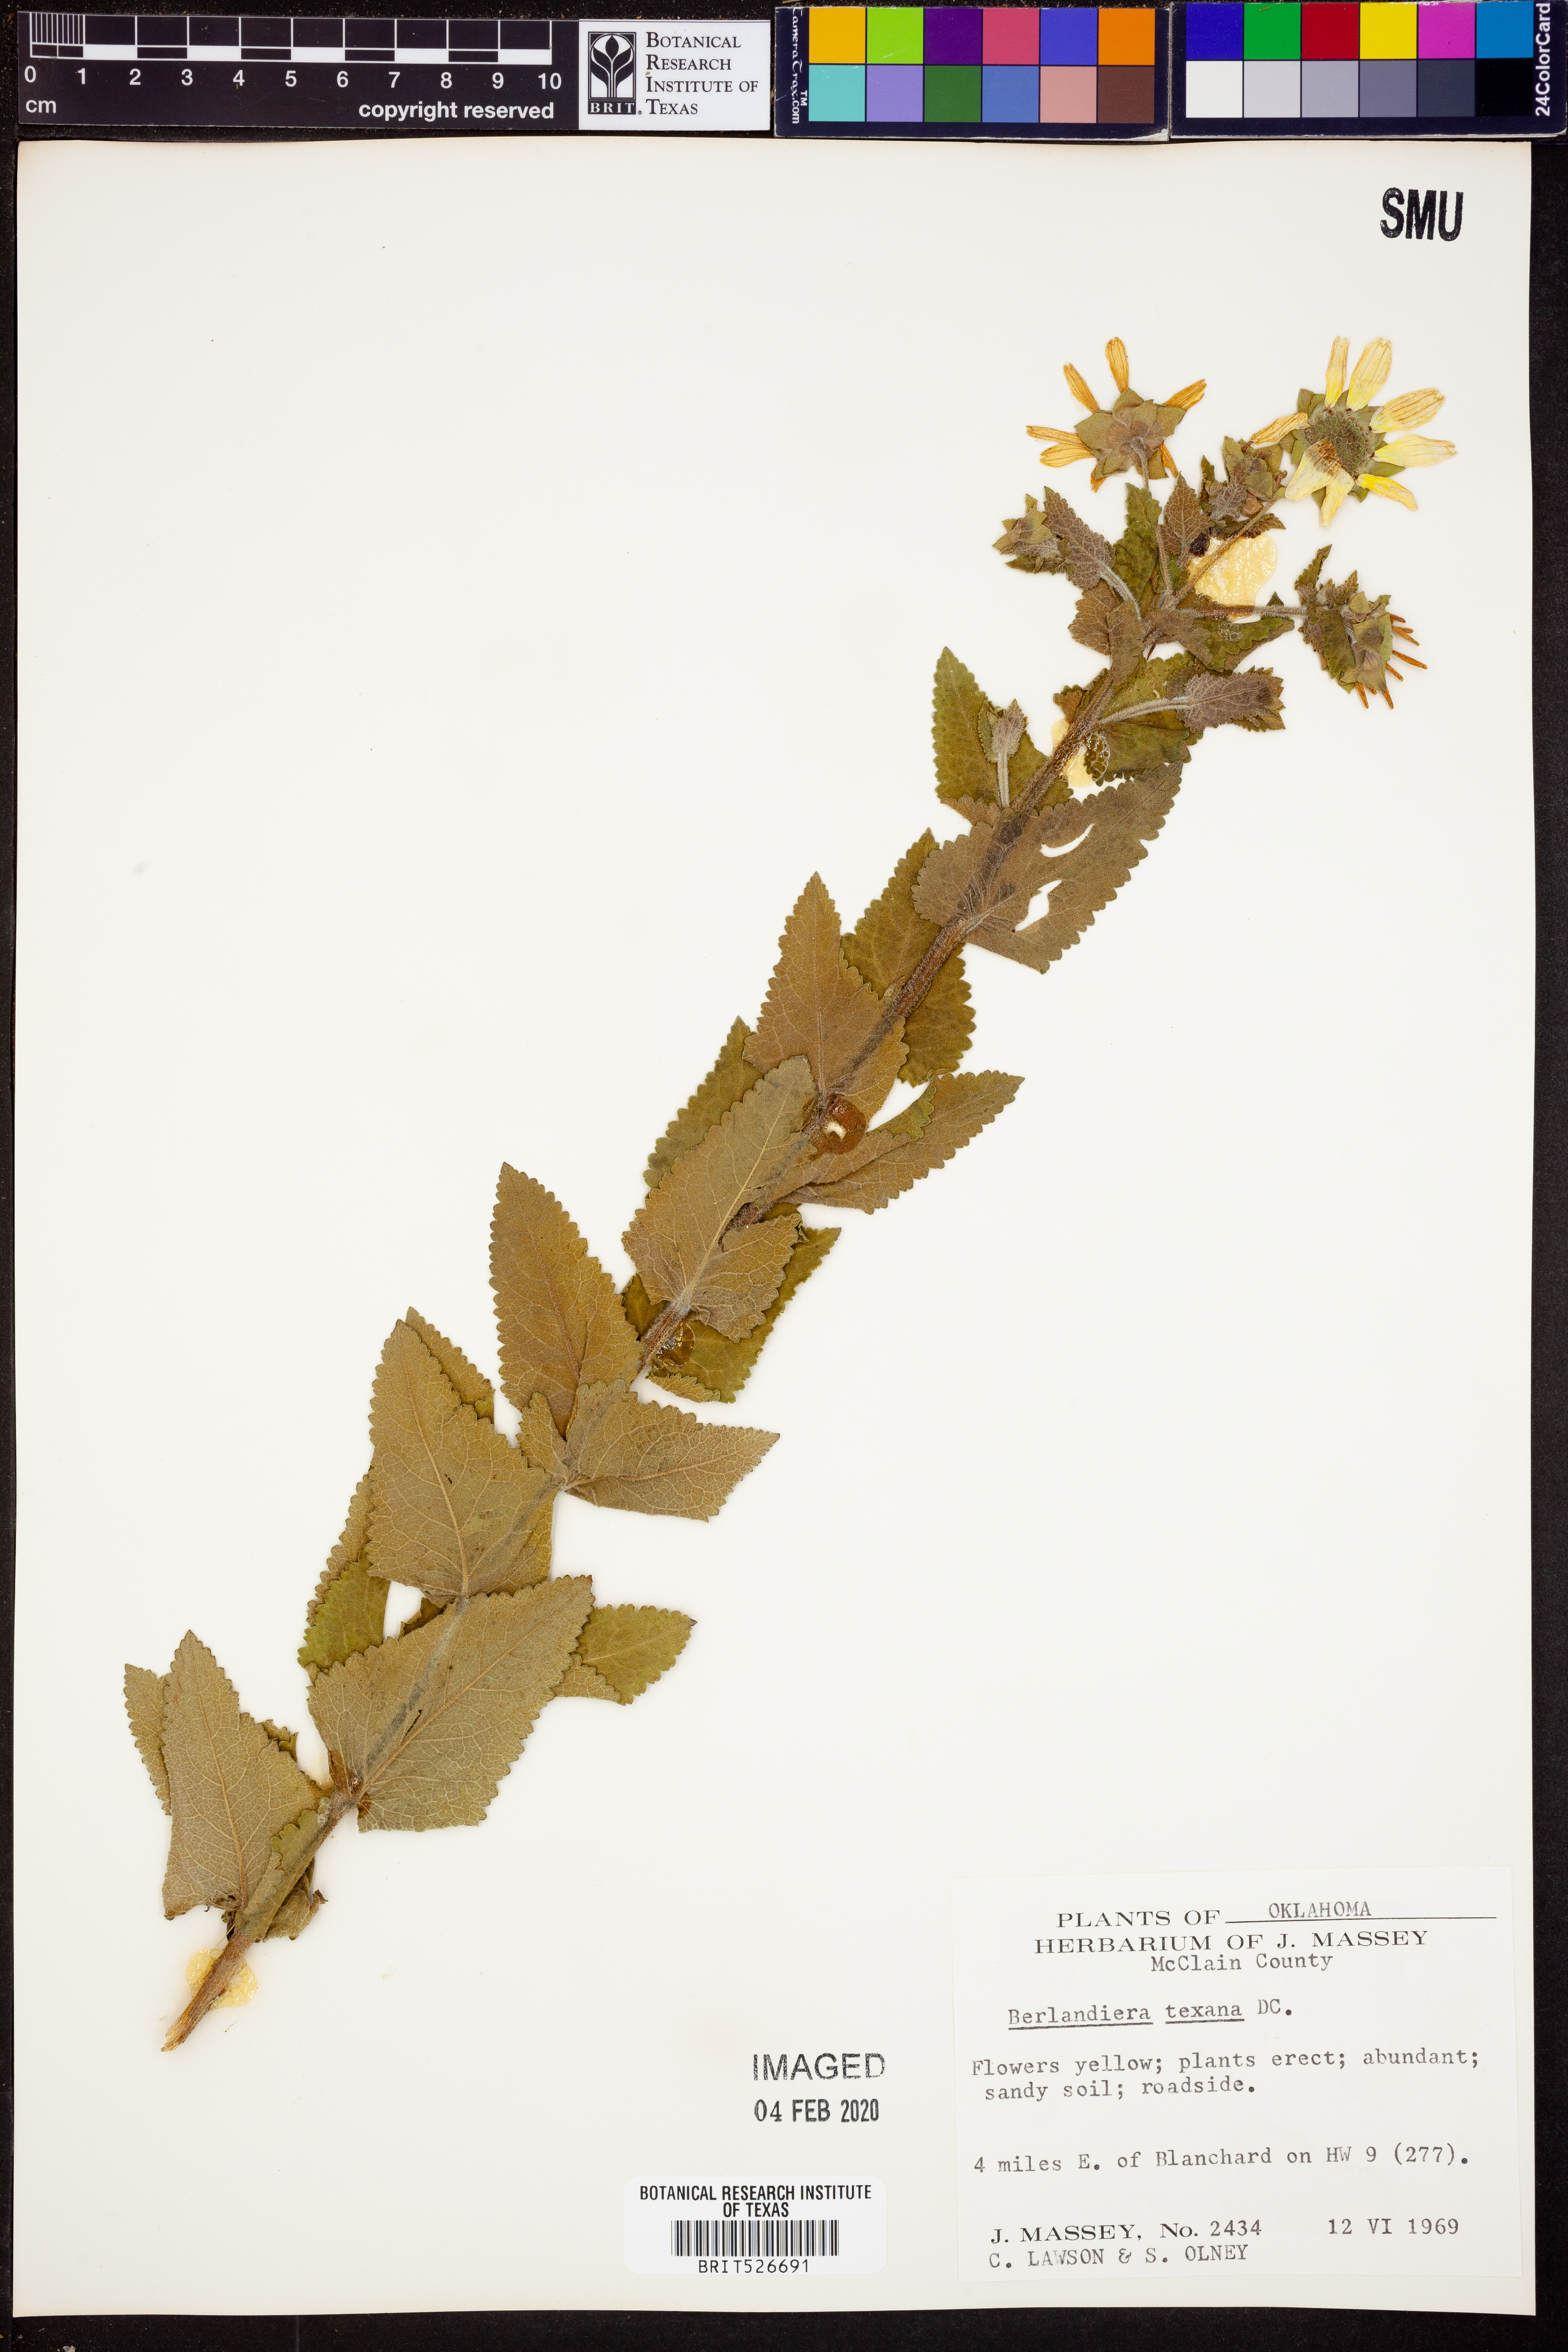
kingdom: Plantae
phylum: Tracheophyta
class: Magnoliopsida
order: Asterales
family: Asteraceae
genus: Berlandiera
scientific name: Berlandiera texana
